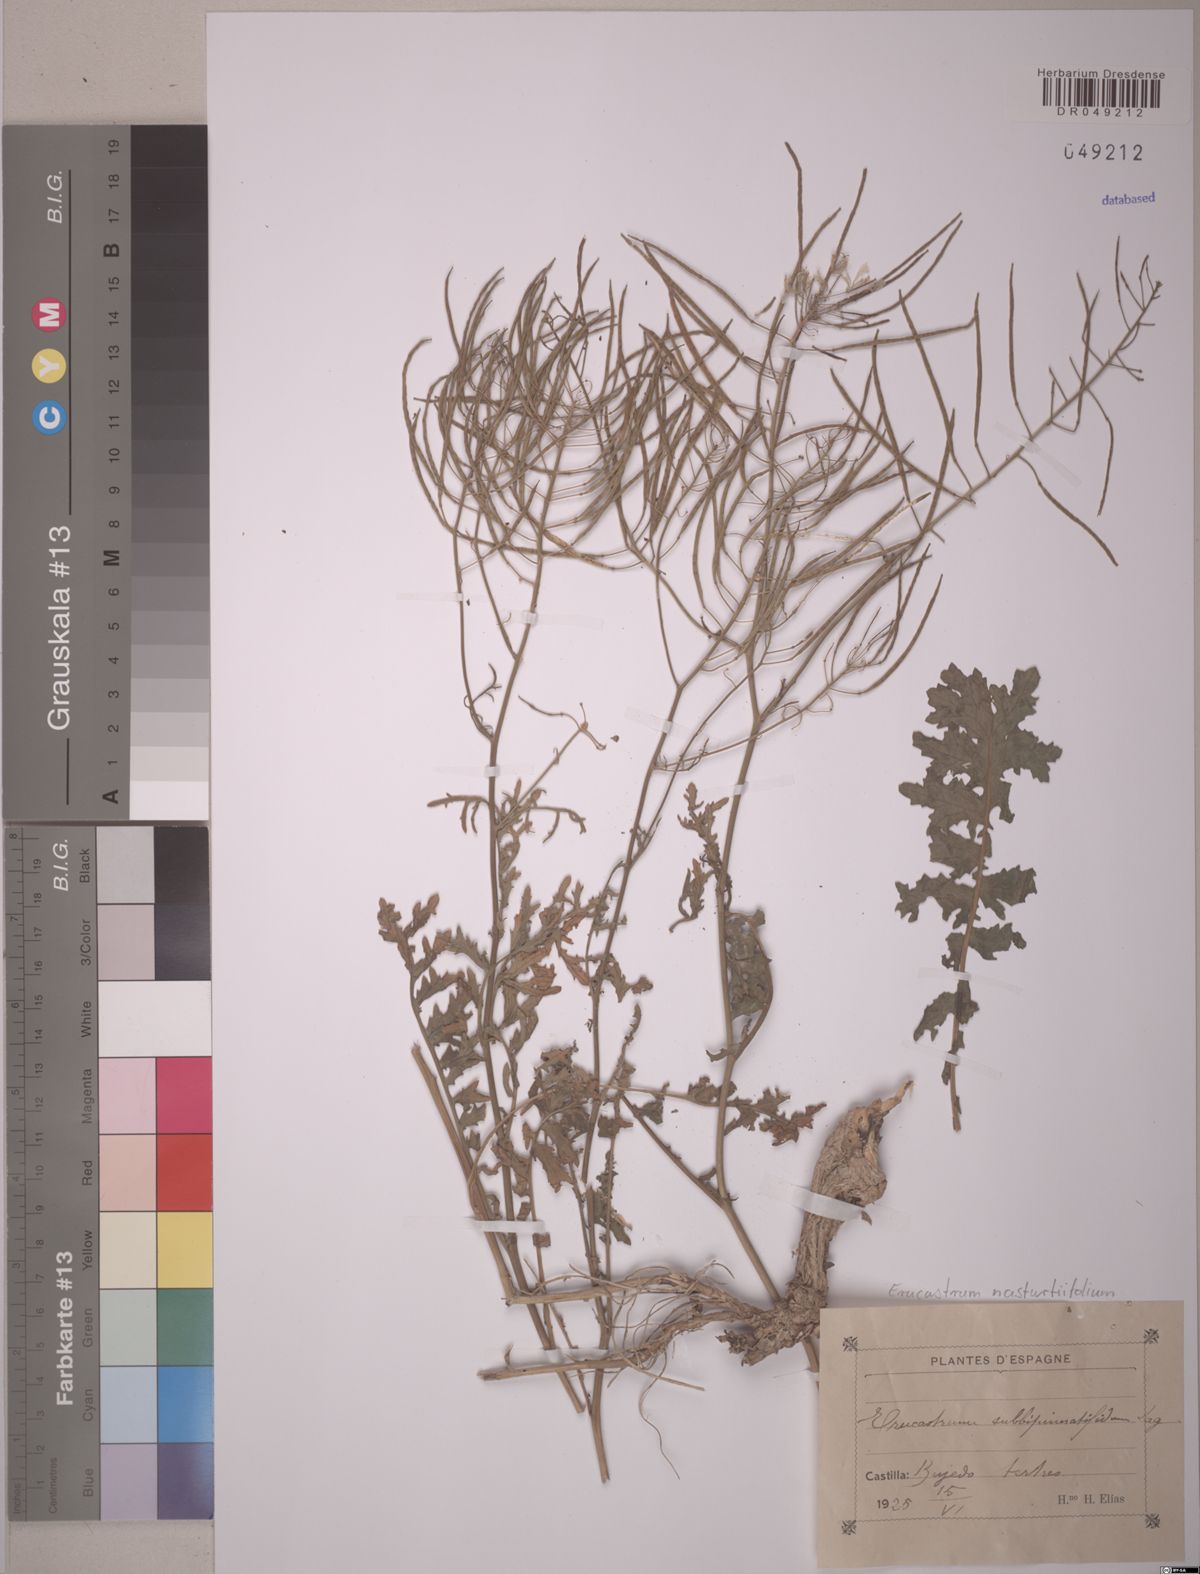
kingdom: Plantae
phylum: Tracheophyta
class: Magnoliopsida
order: Brassicales
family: Brassicaceae
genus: Erucastrum
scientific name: Erucastrum nasturtiifolium
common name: Watercress-leaf rocket
